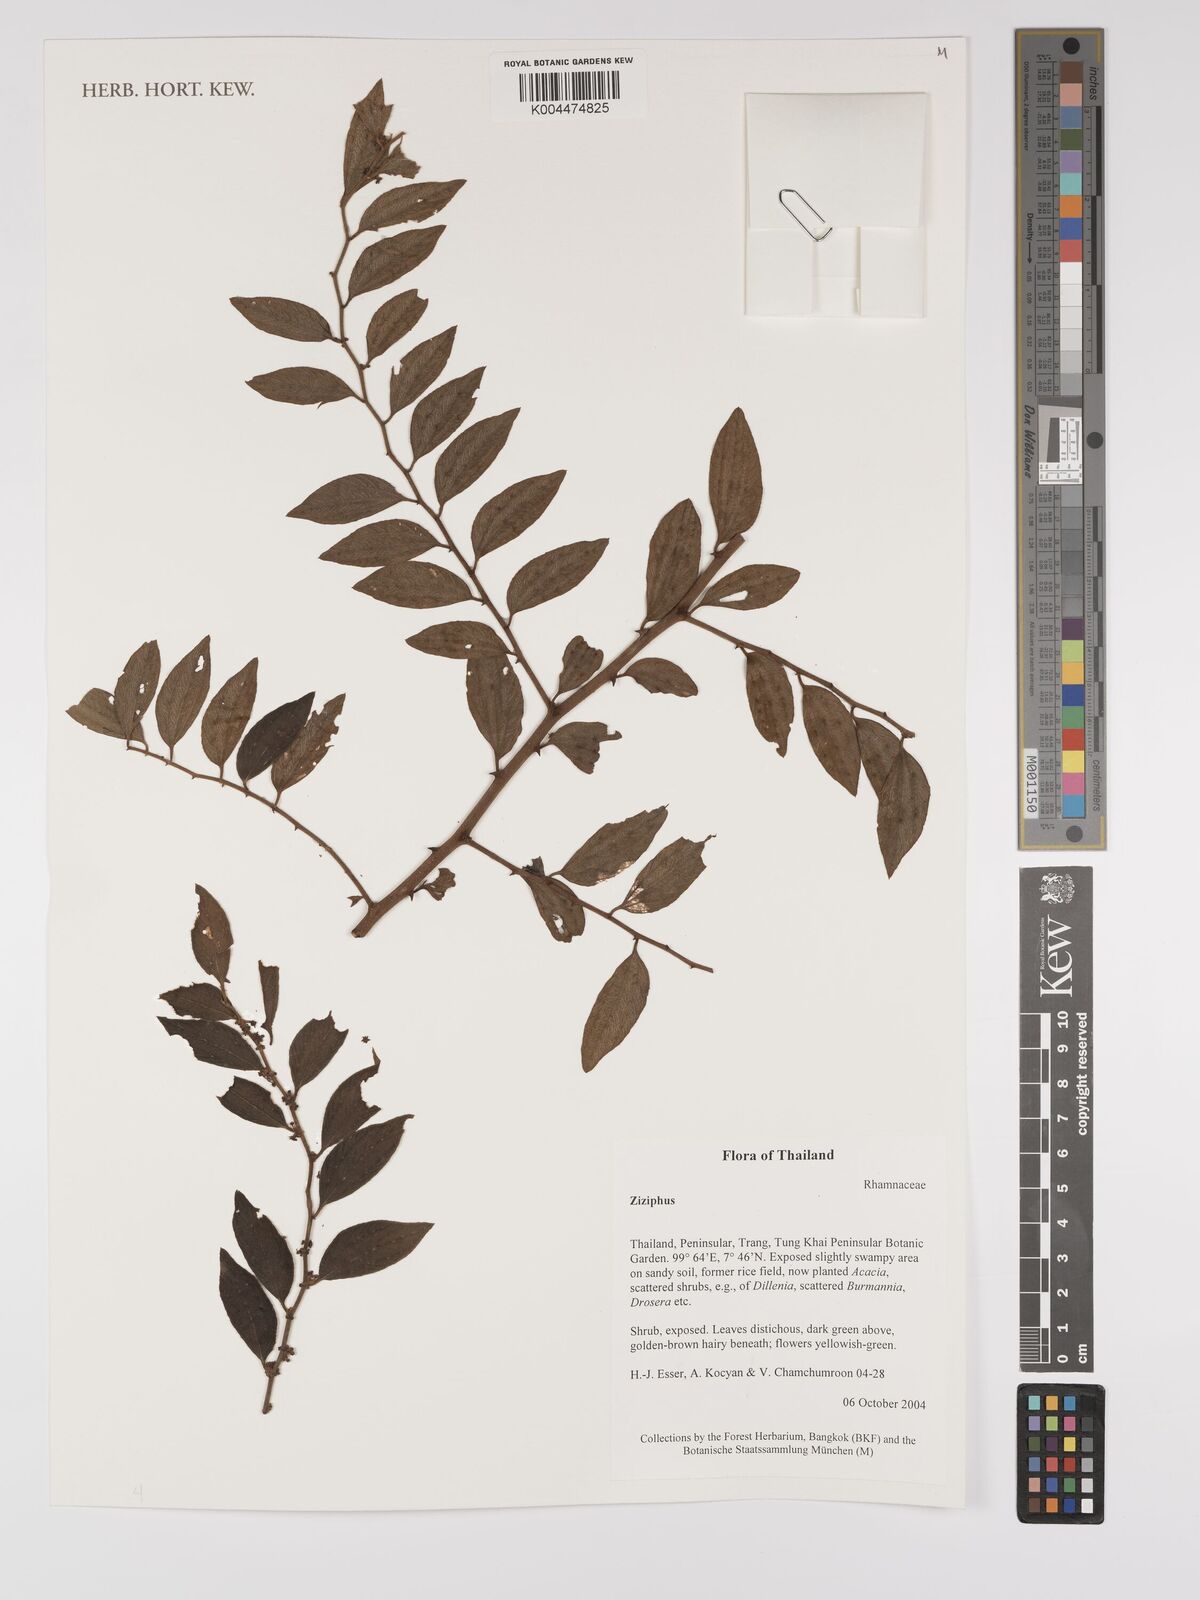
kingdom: Plantae
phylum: Tracheophyta
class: Magnoliopsida
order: Rosales
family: Rhamnaceae
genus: Ziziphus
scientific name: Ziziphus oenopolia
